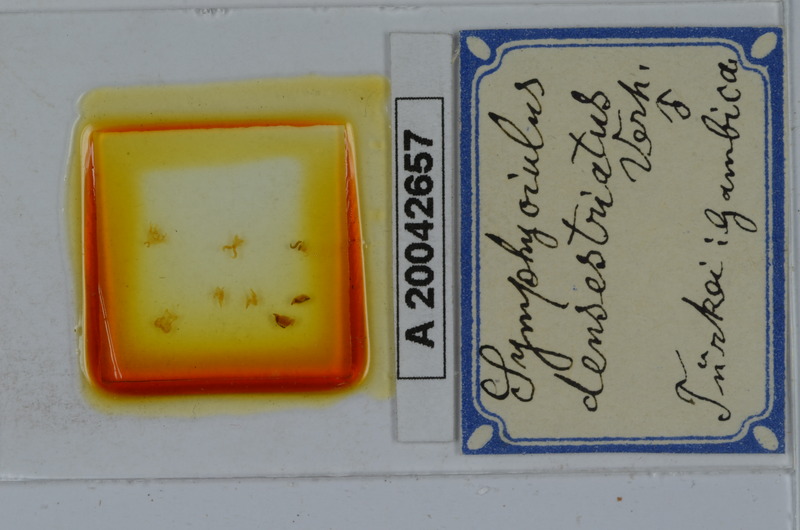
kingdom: Animalia
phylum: Arthropoda
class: Diplopoda
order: Julida
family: Julidae
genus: Symphyoiulus
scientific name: Symphyoiulus impartitus
